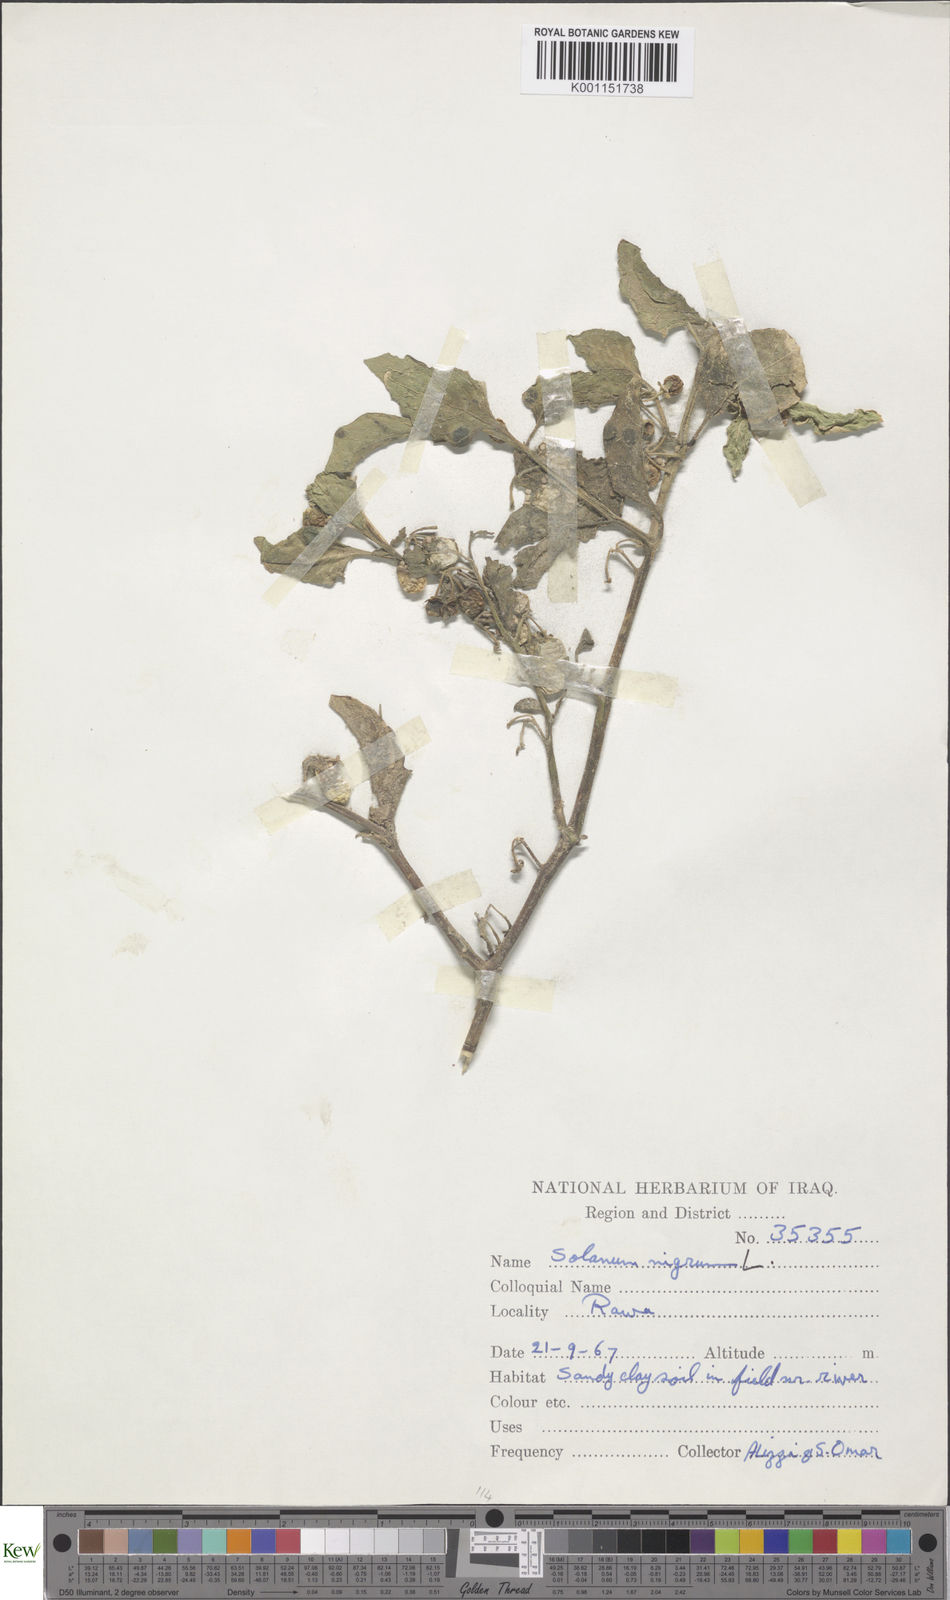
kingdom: Plantae
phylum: Tracheophyta
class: Magnoliopsida
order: Solanales
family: Solanaceae
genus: Solanum
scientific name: Solanum nigrum
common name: Black nightshade
